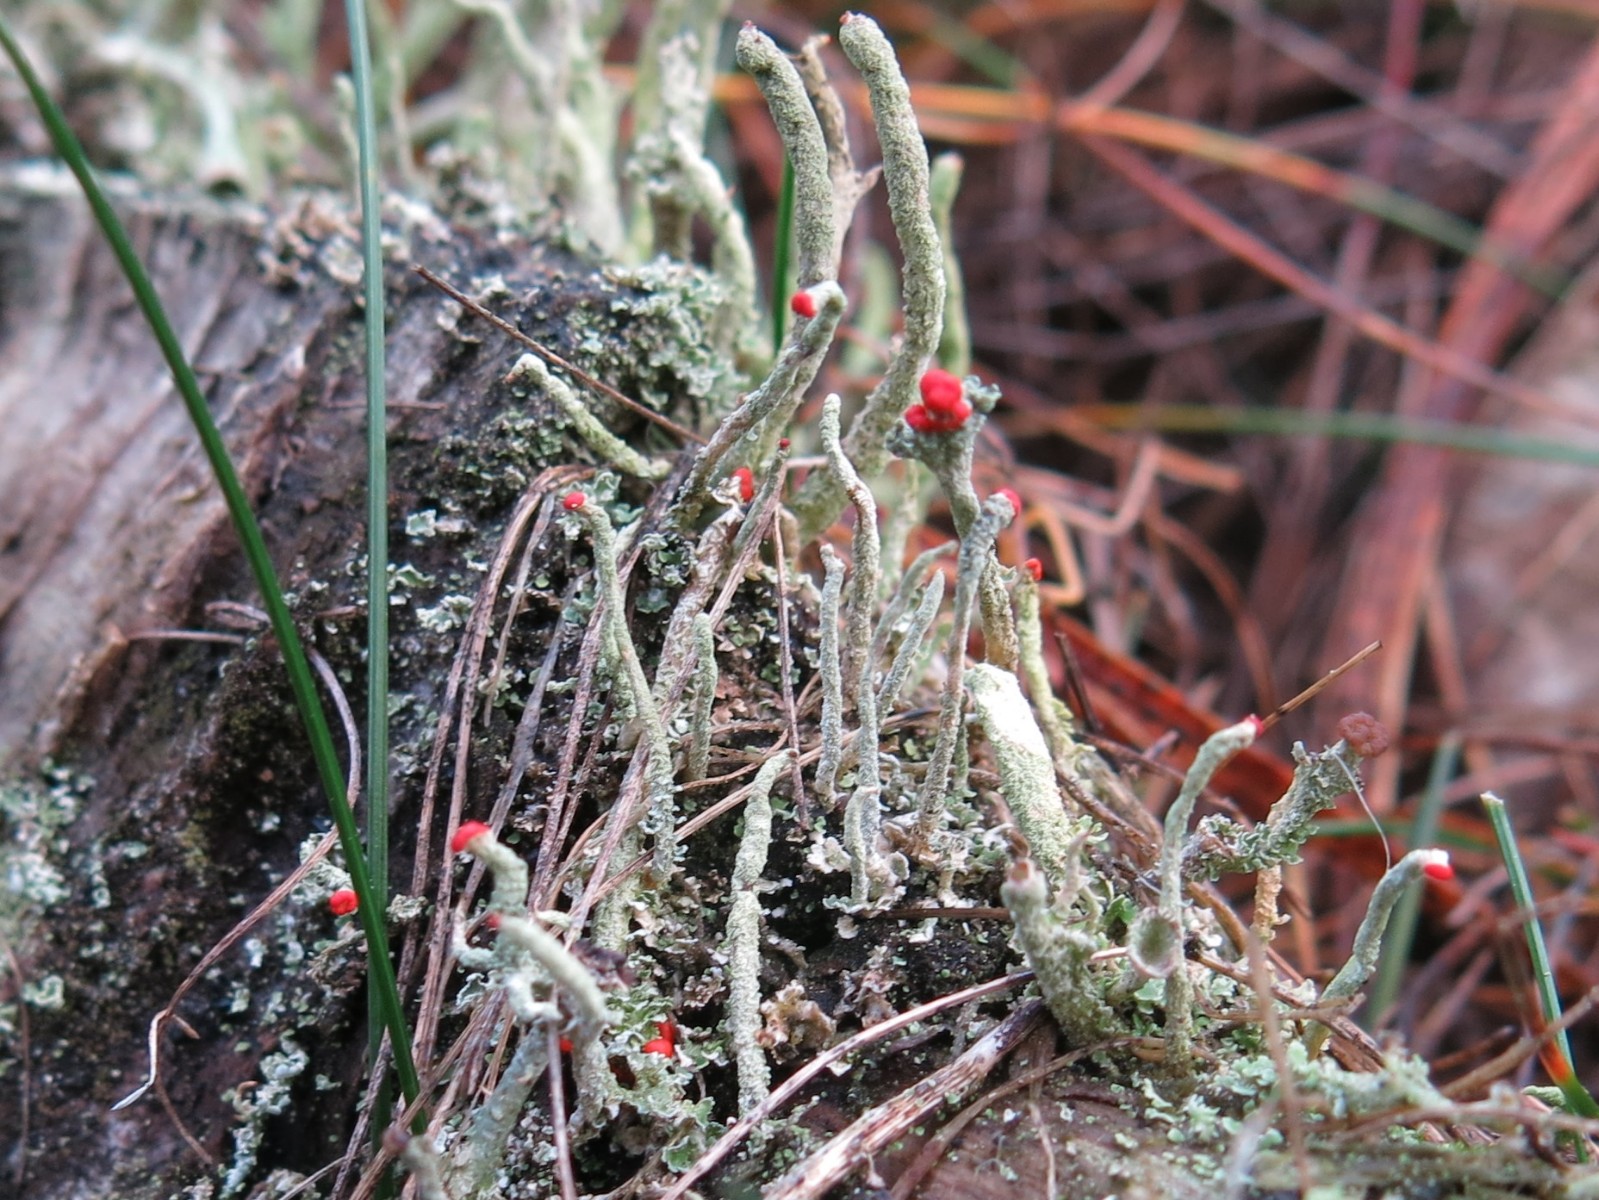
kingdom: Fungi
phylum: Ascomycota
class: Lecanoromycetes
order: Lecanorales
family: Cladoniaceae
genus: Cladonia
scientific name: Cladonia floerkeana
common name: lakrød bægerlav
